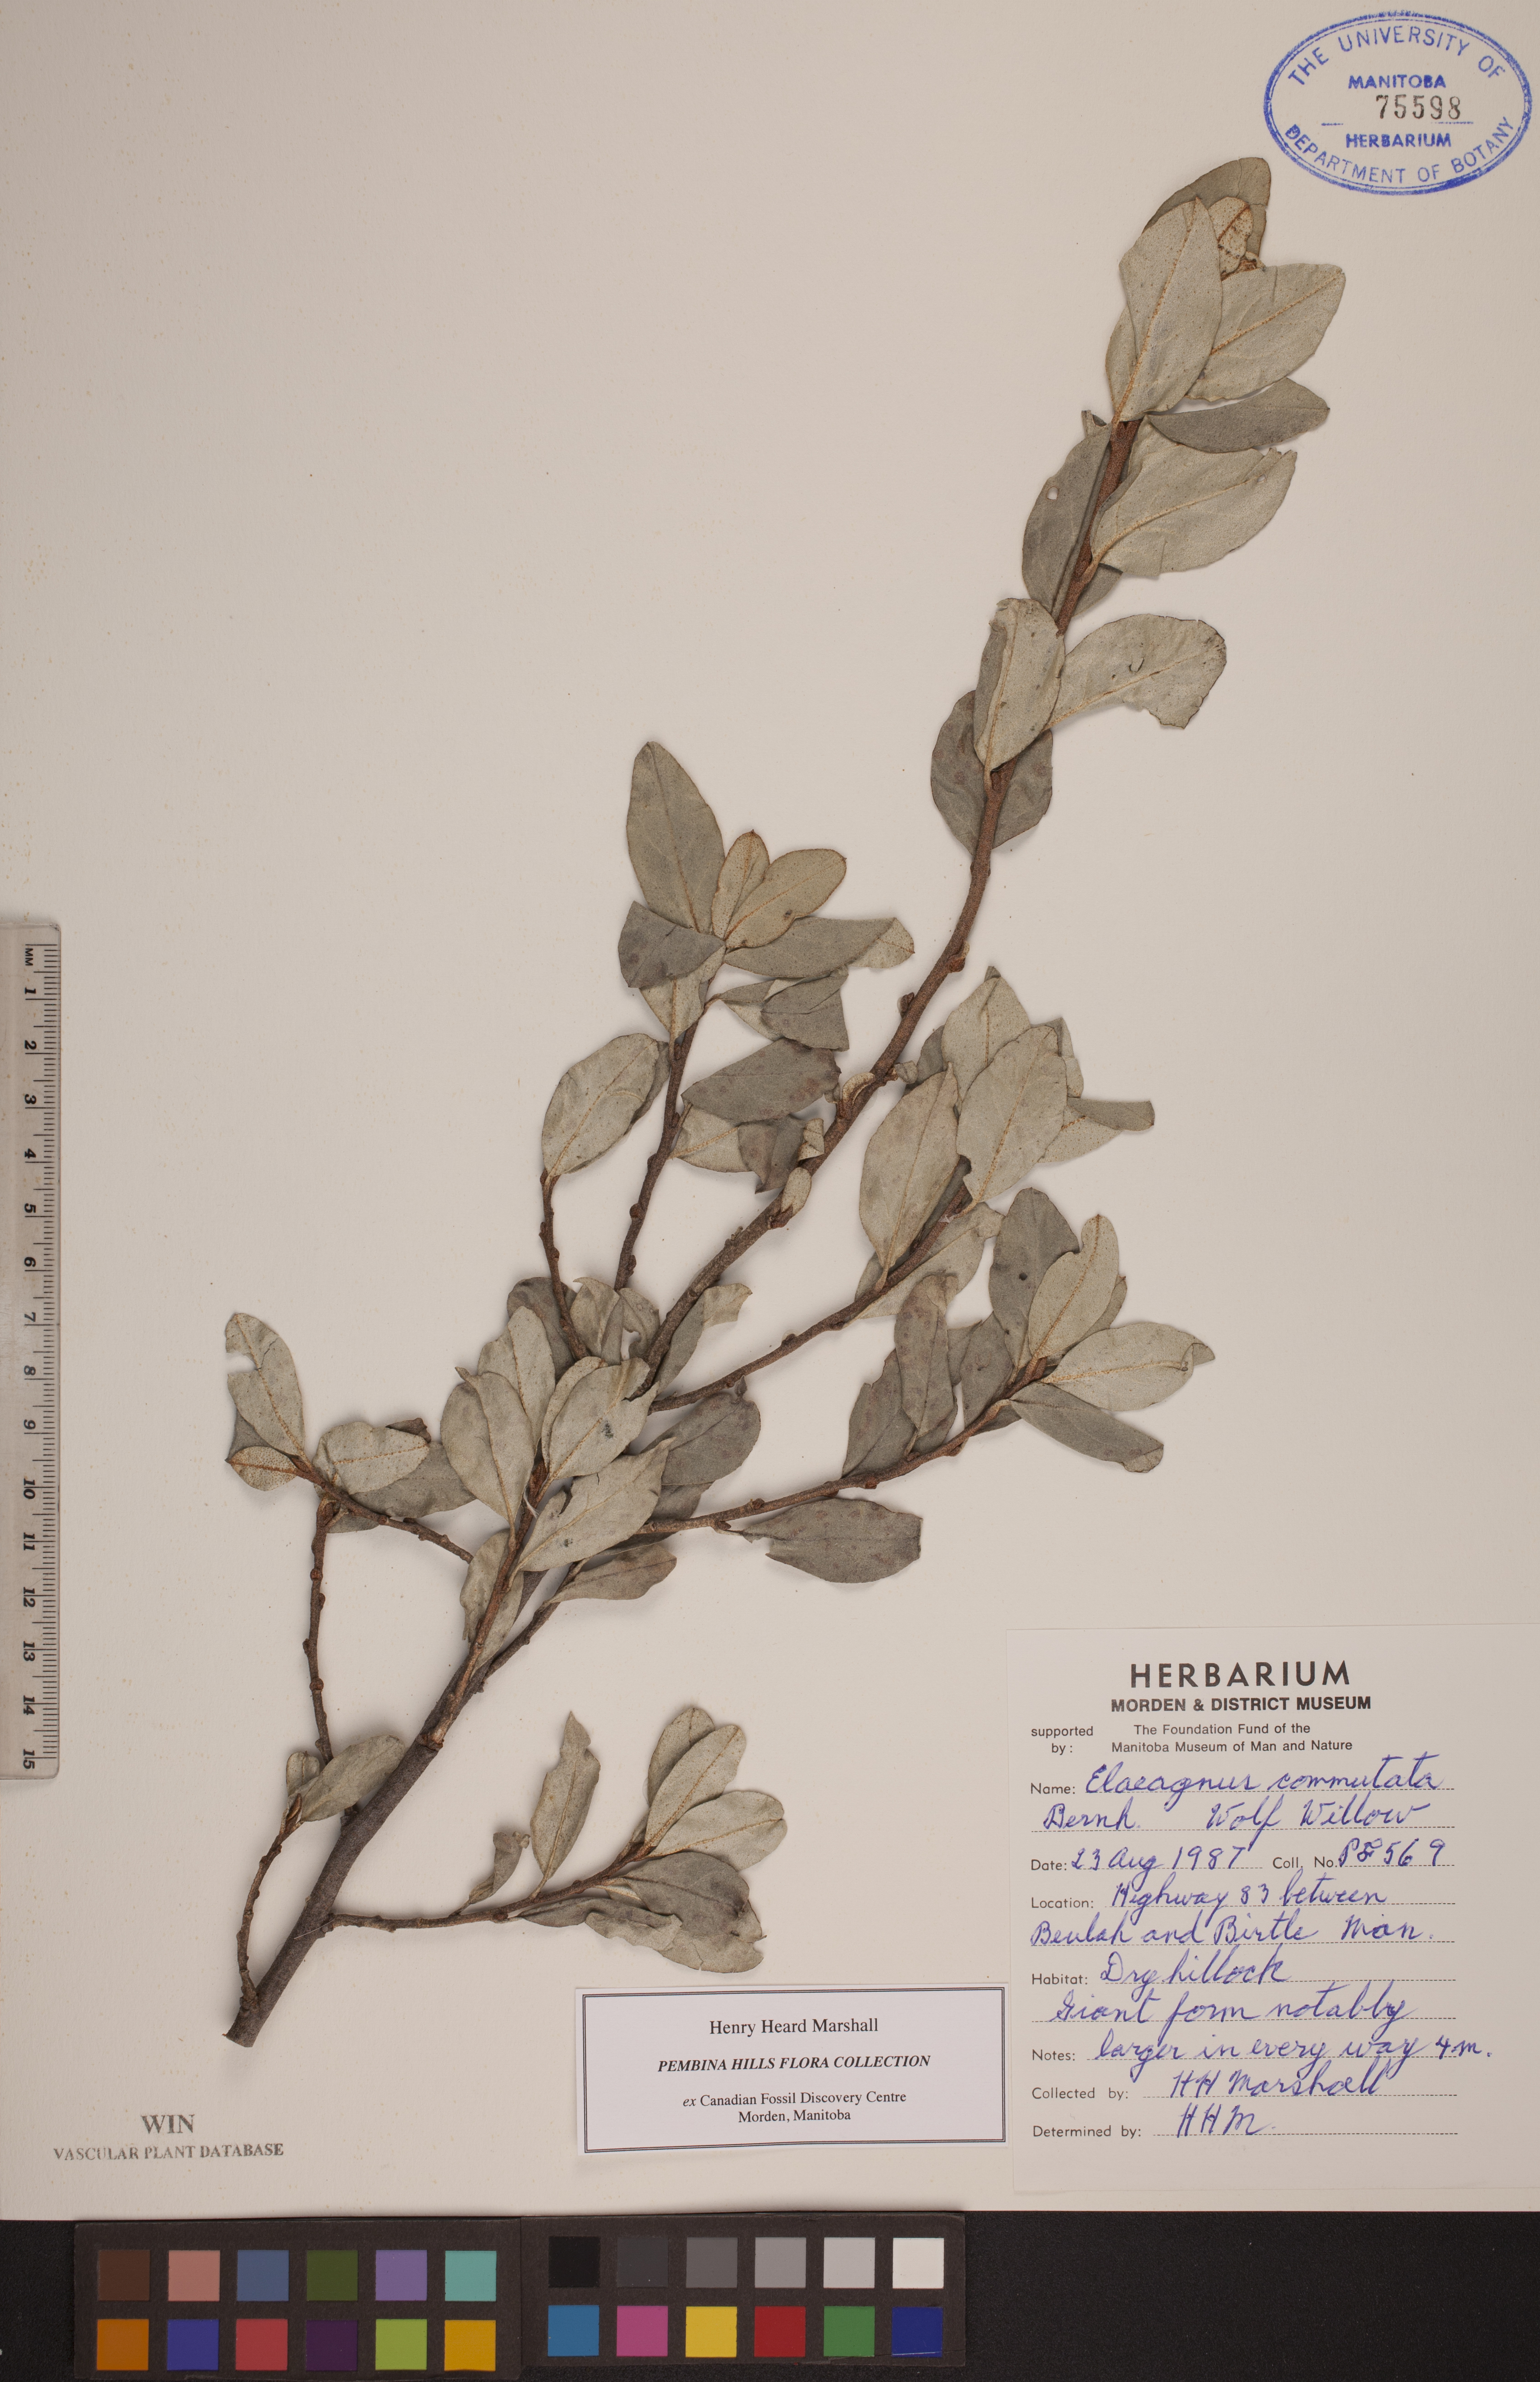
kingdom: Plantae
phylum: Tracheophyta
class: Magnoliopsida
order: Rosales
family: Elaeagnaceae
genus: Elaeagnus
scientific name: Elaeagnus commutata
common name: Silverberry
